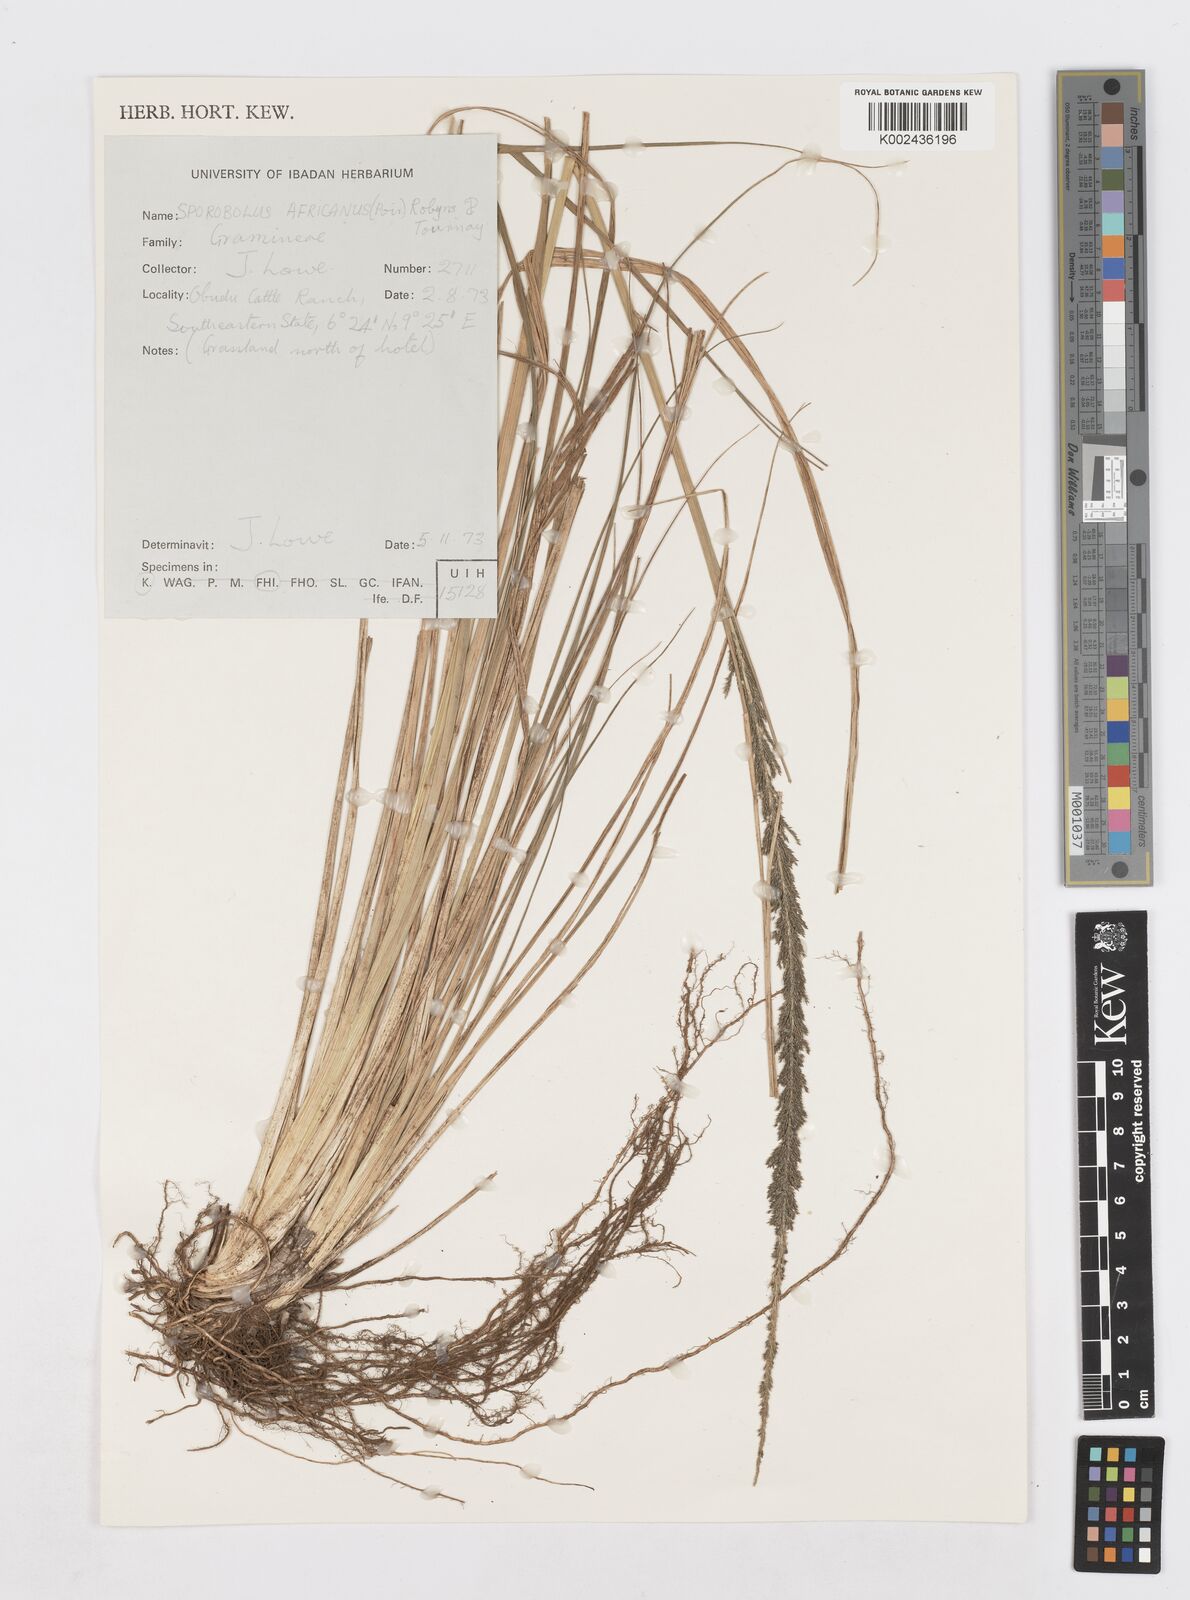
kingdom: Plantae
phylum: Tracheophyta
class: Liliopsida
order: Poales
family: Poaceae
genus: Sporobolus
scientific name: Sporobolus africanus
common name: African dropseed
